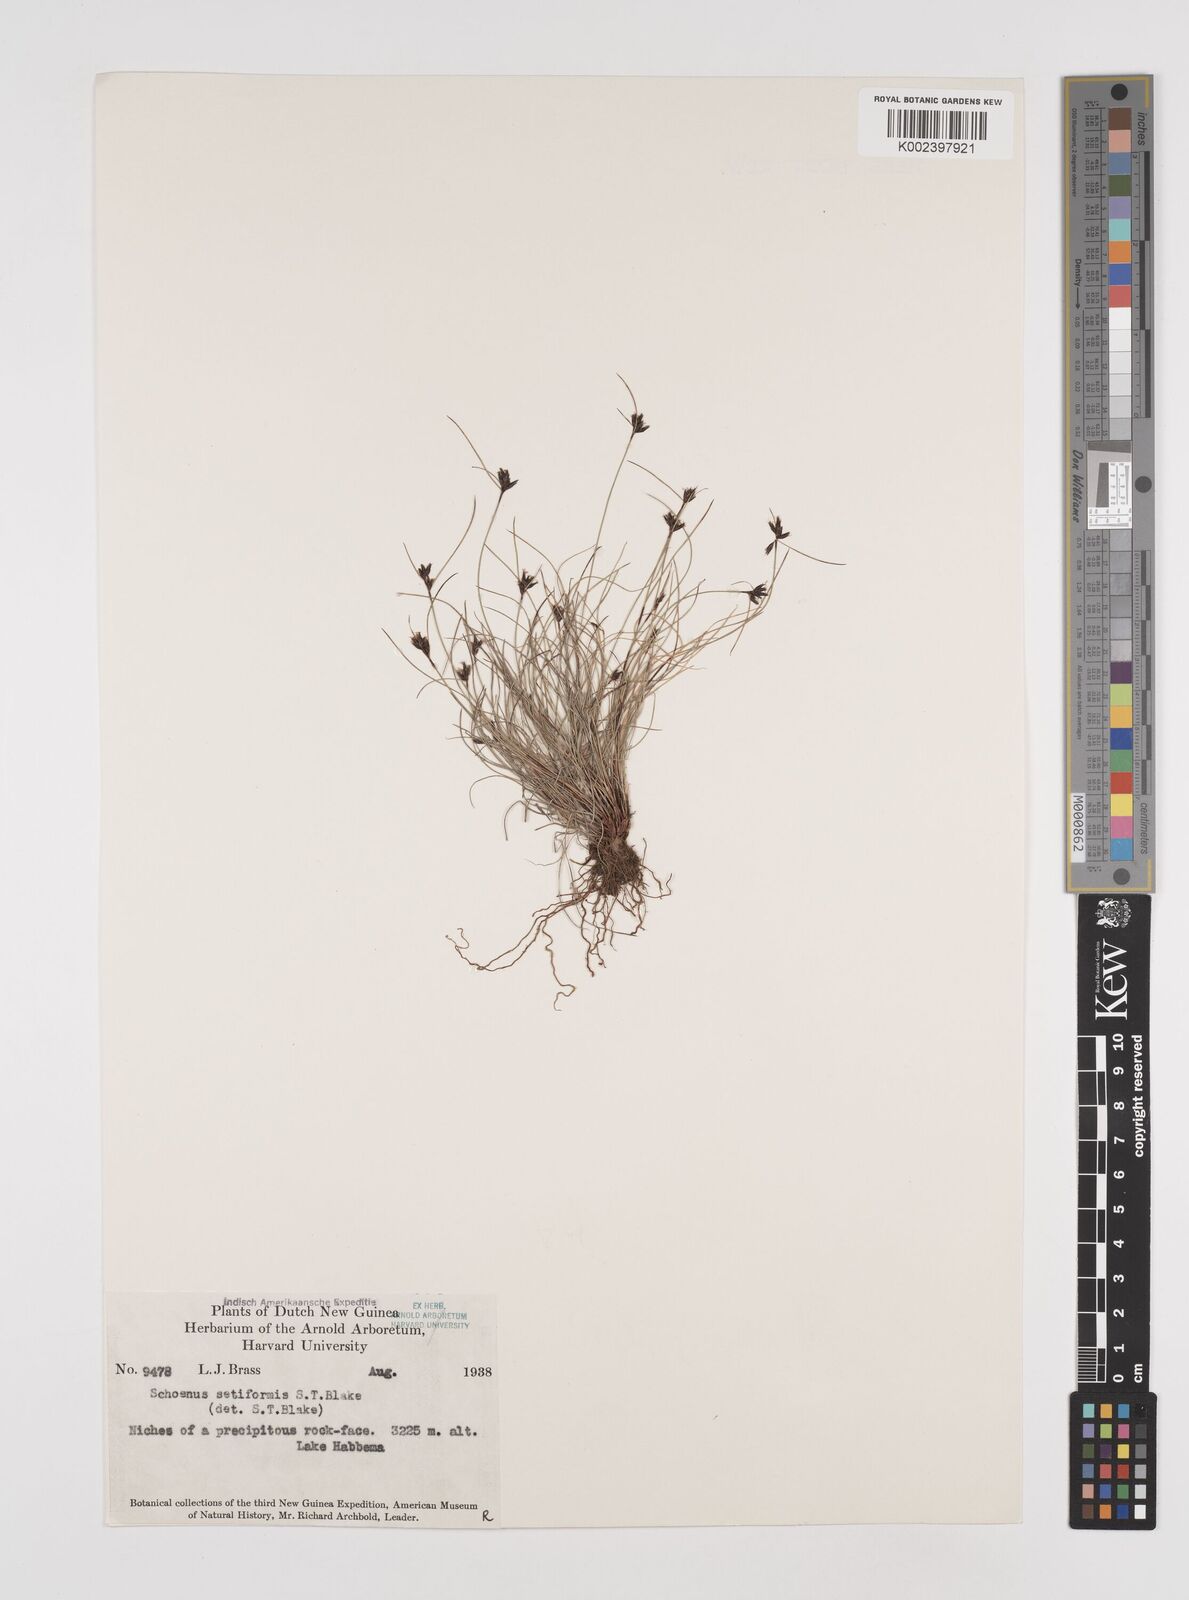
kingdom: Plantae
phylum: Tracheophyta
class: Liliopsida
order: Poales
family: Cyperaceae
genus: Schoenus
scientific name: Schoenus setiformis
